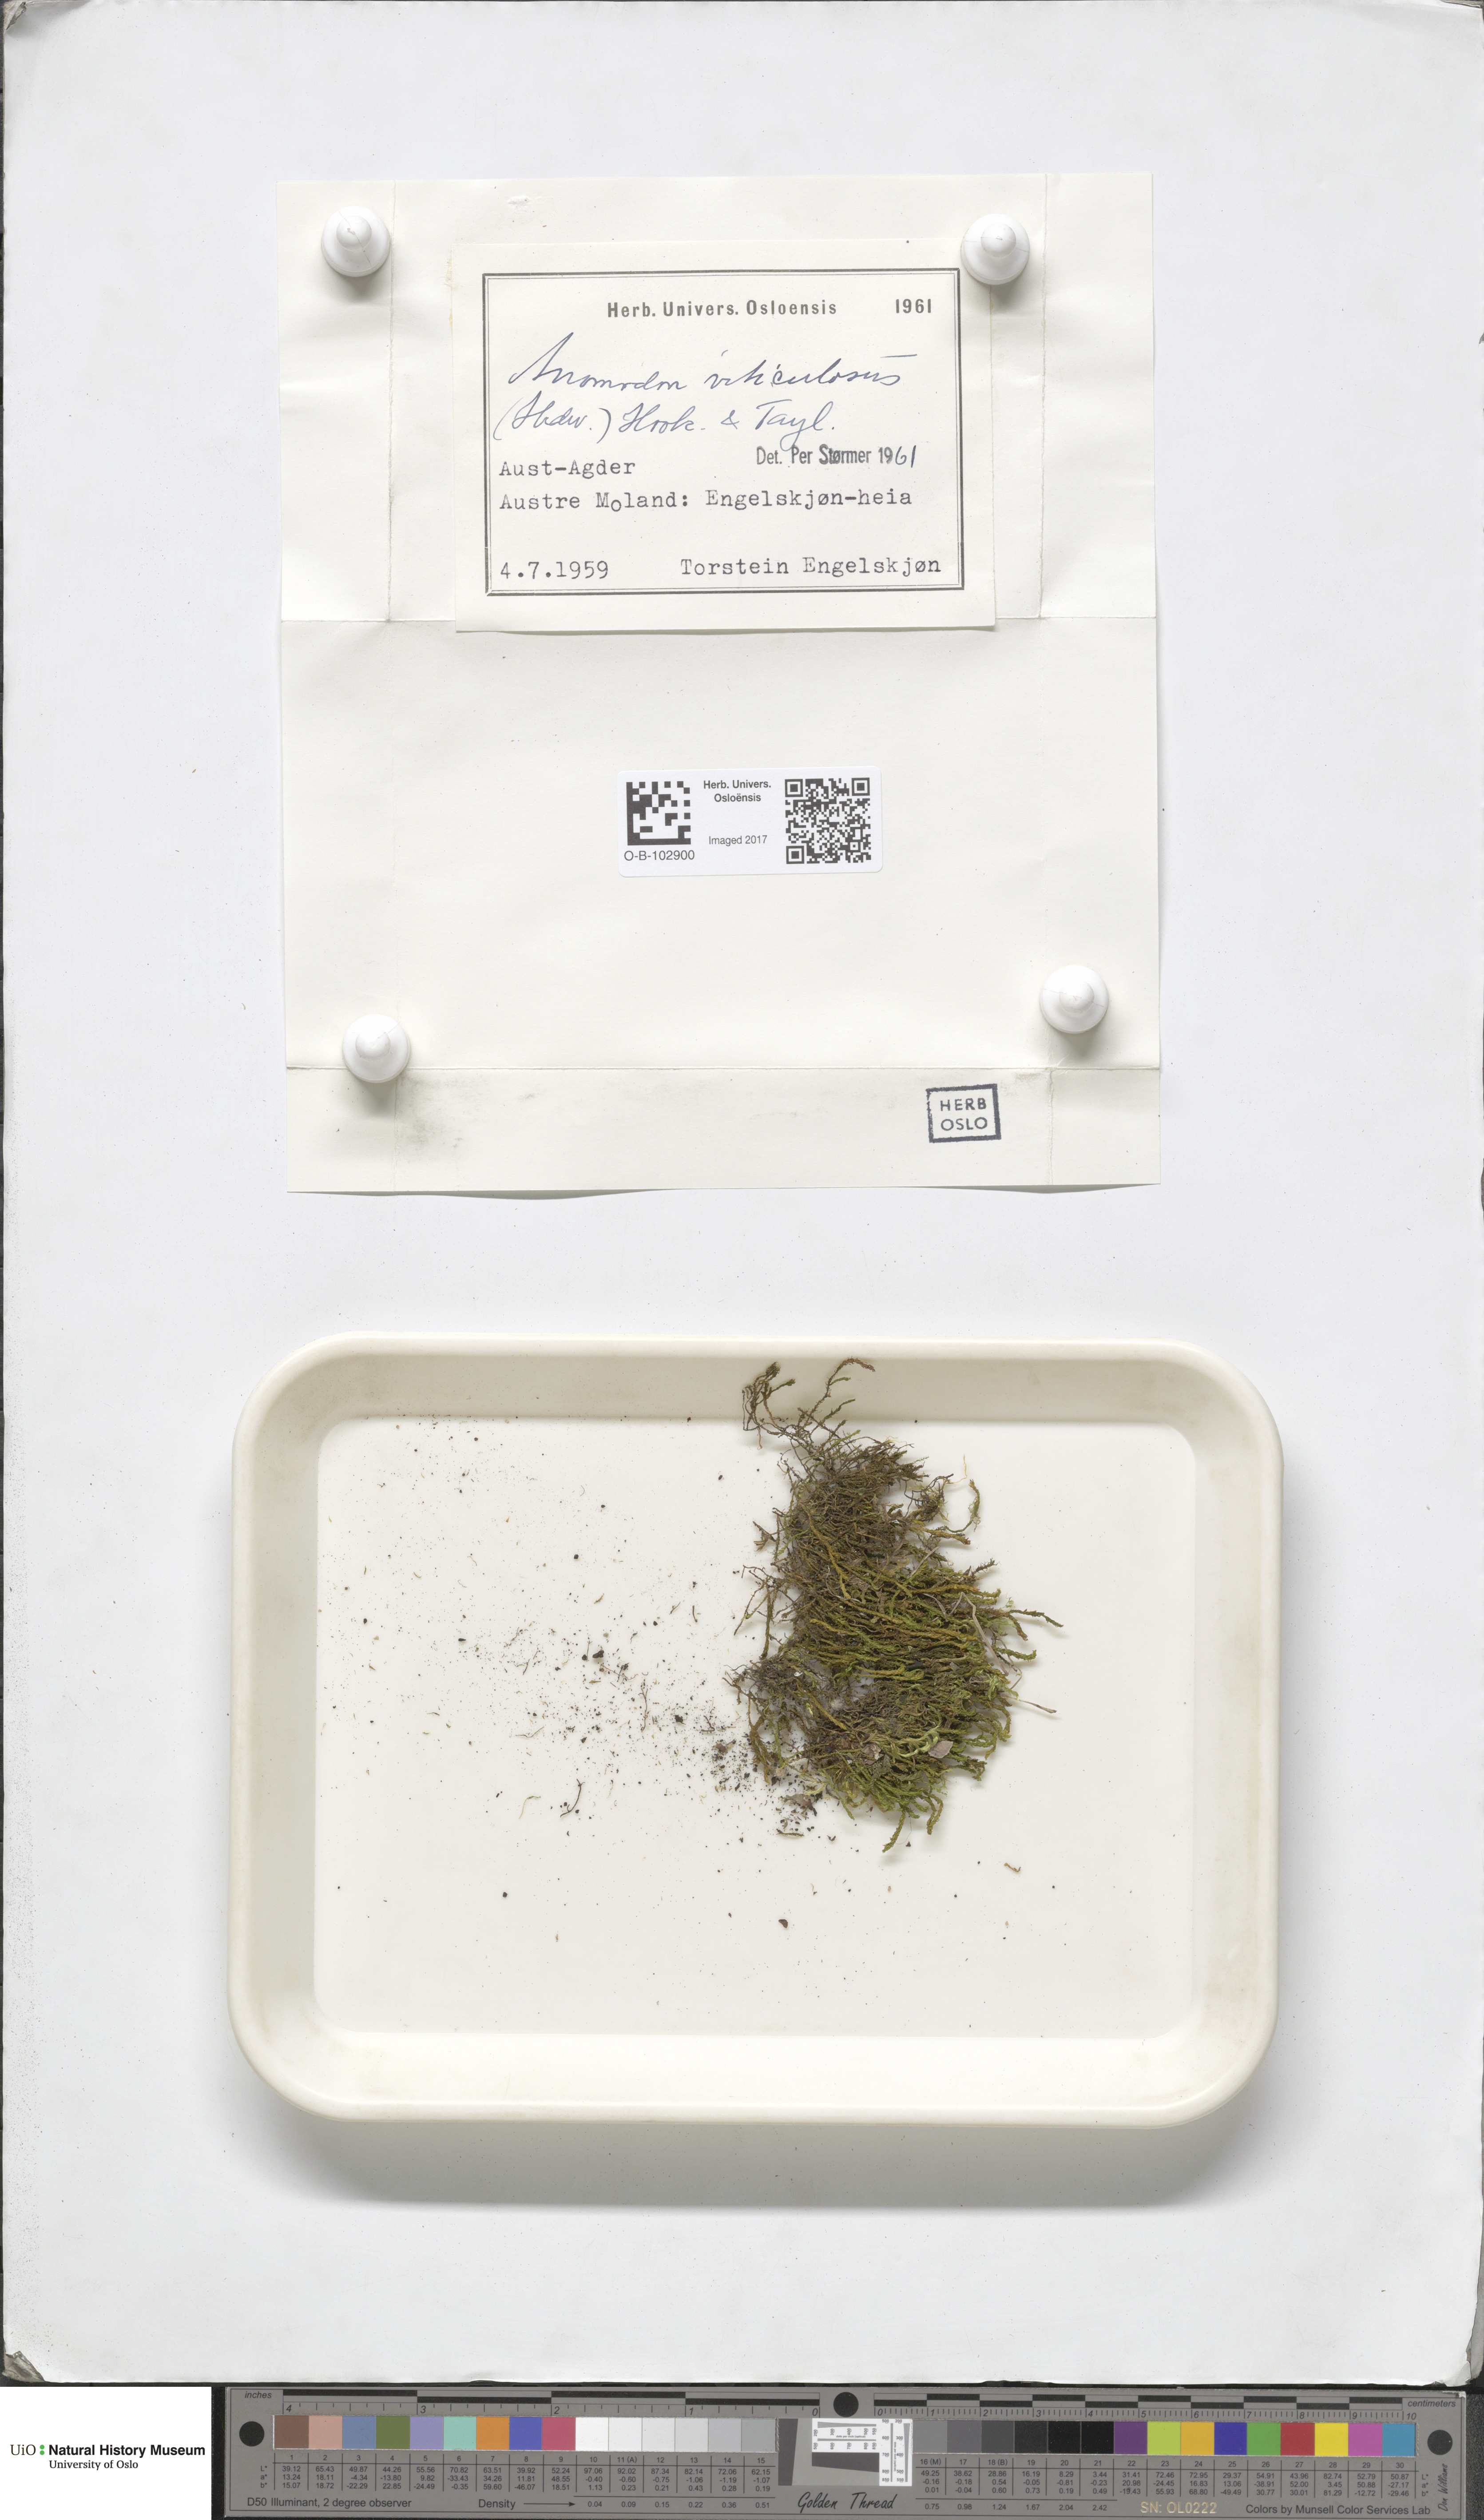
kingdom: Plantae
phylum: Bryophyta
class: Bryopsida
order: Hypnales
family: Anomodontaceae
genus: Anomodon
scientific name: Anomodon viticulosus
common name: Tall anomodon
